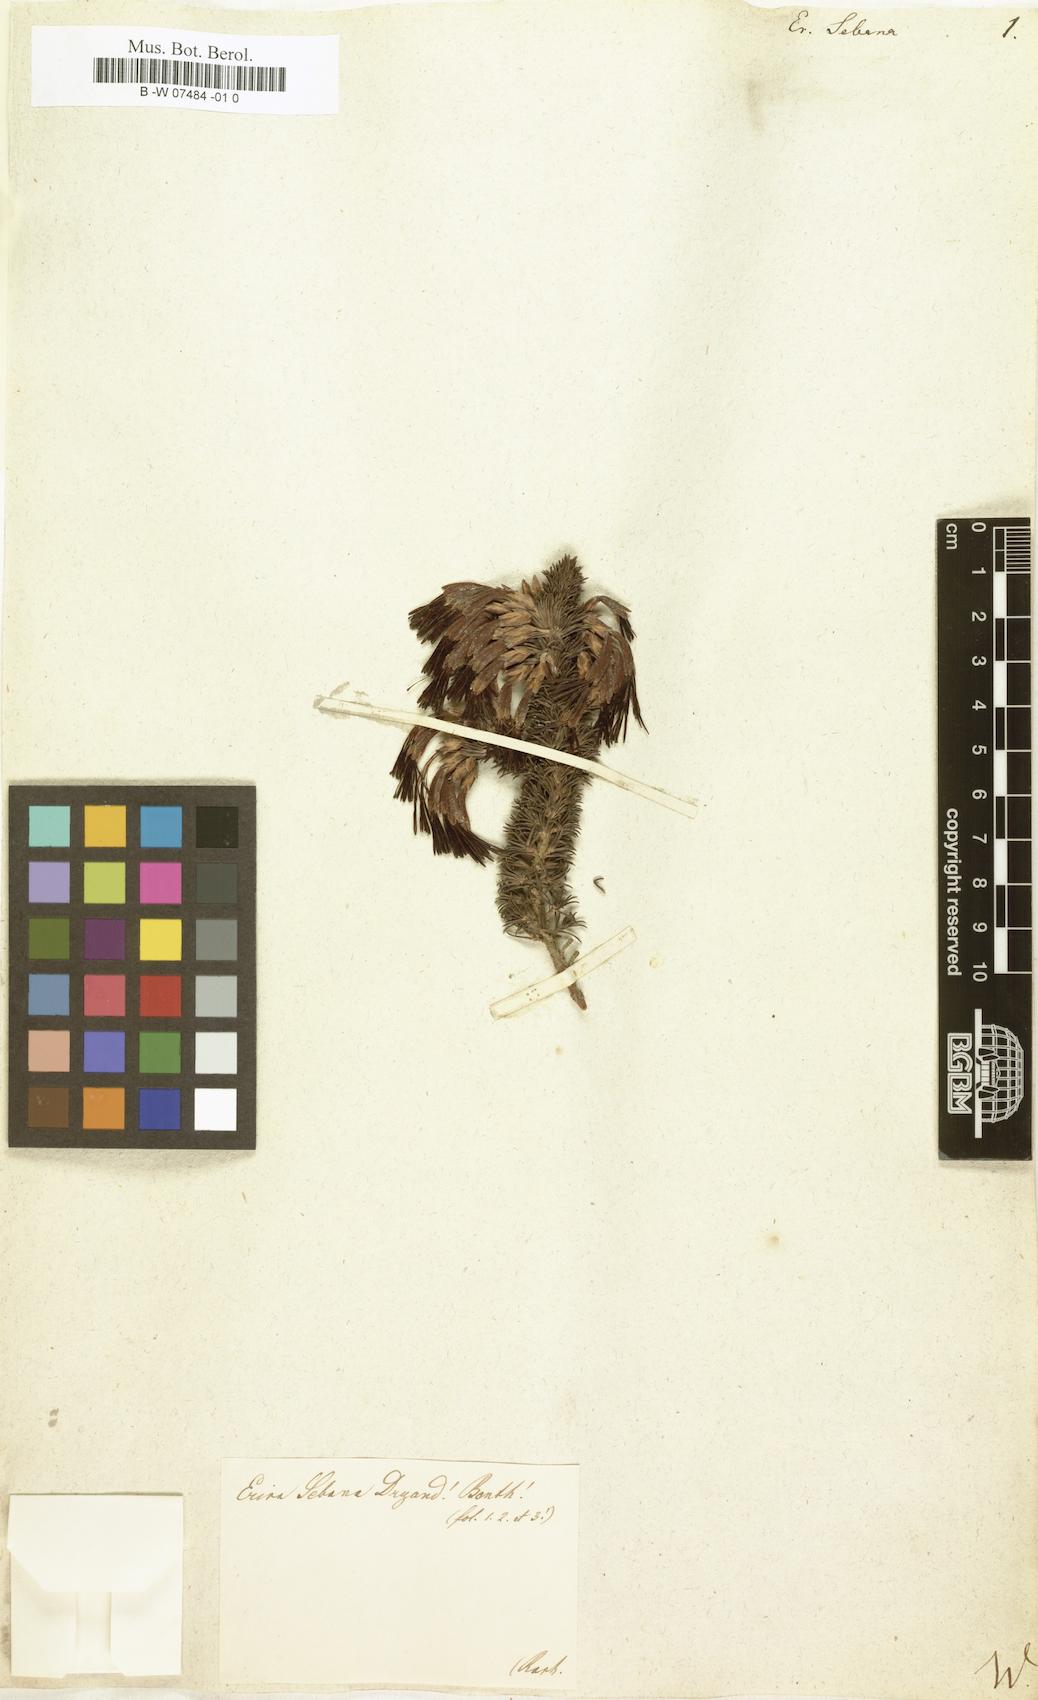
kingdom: Plantae
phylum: Tracheophyta
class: Magnoliopsida
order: Ericales
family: Ericaceae
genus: Erica
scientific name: Erica coccinea
